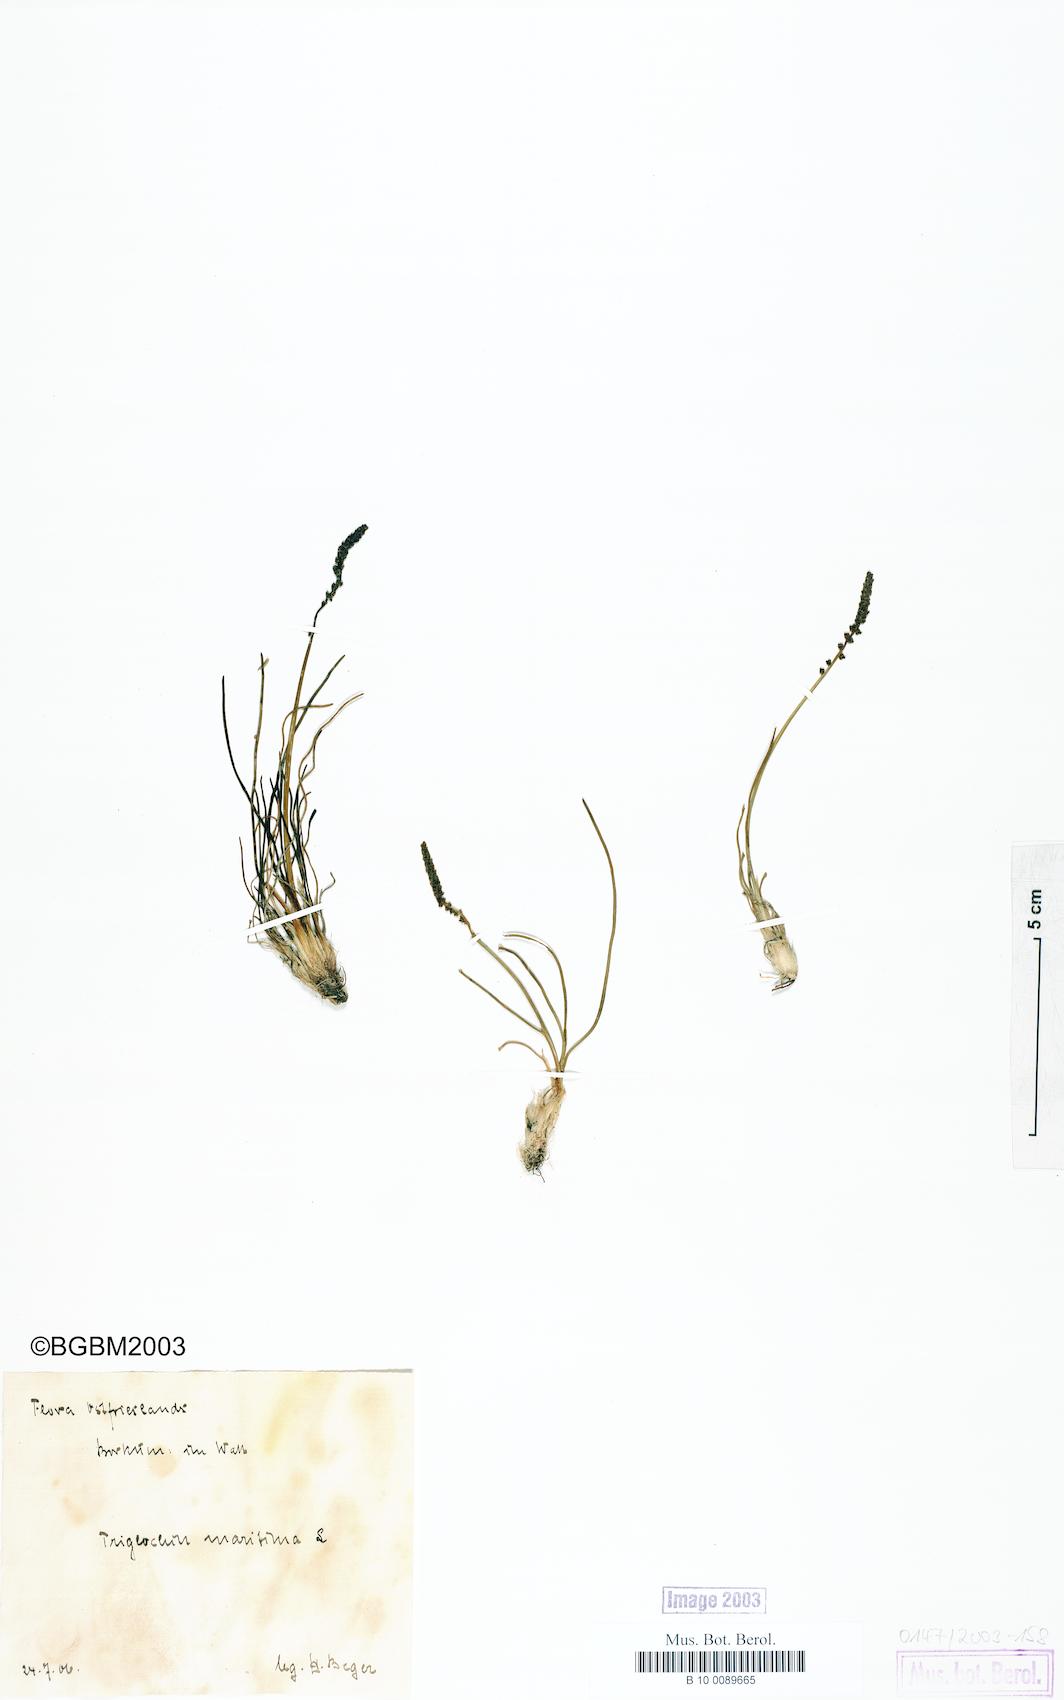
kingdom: Plantae
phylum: Tracheophyta
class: Liliopsida
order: Alismatales
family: Juncaginaceae
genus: Triglochin
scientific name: Triglochin maritima
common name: Sea arrowgrass
